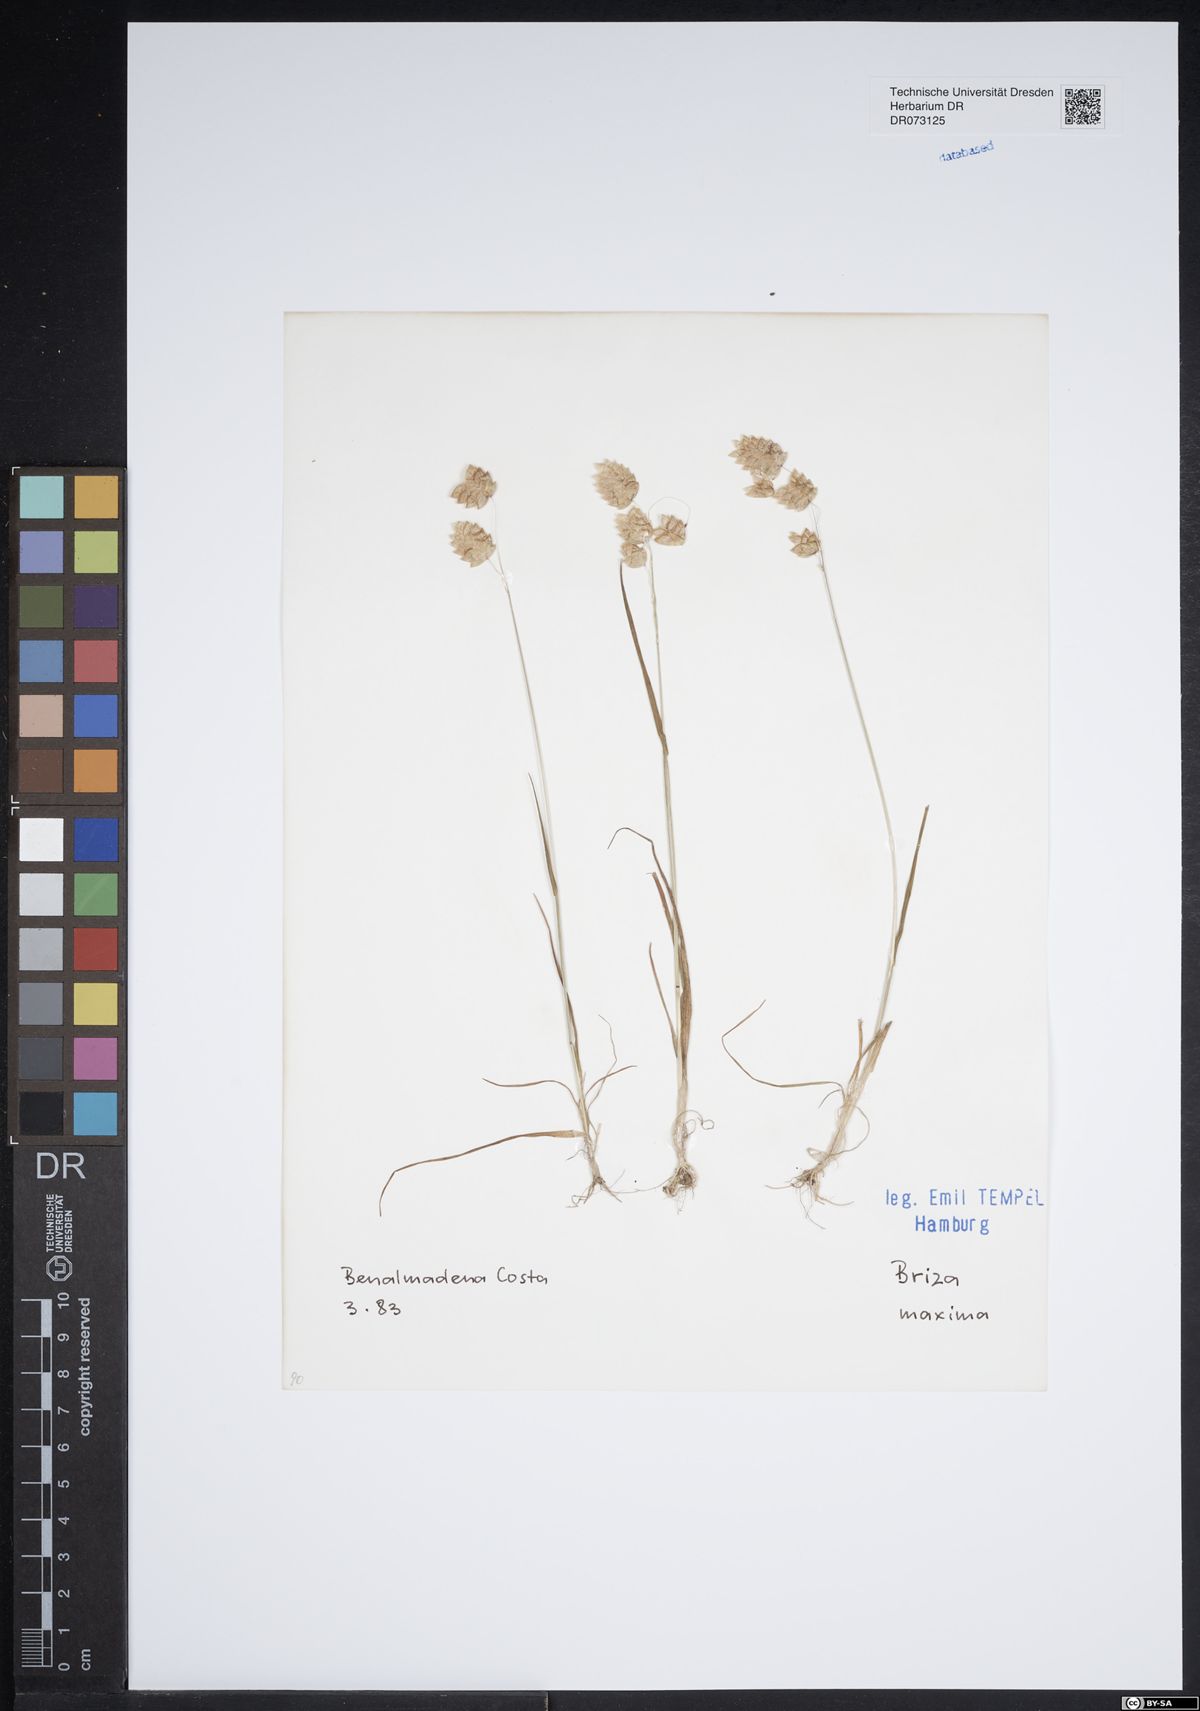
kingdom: Plantae
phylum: Tracheophyta
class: Liliopsida
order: Poales
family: Poaceae
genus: Briza
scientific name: Briza maxima
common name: Big quakinggrass
